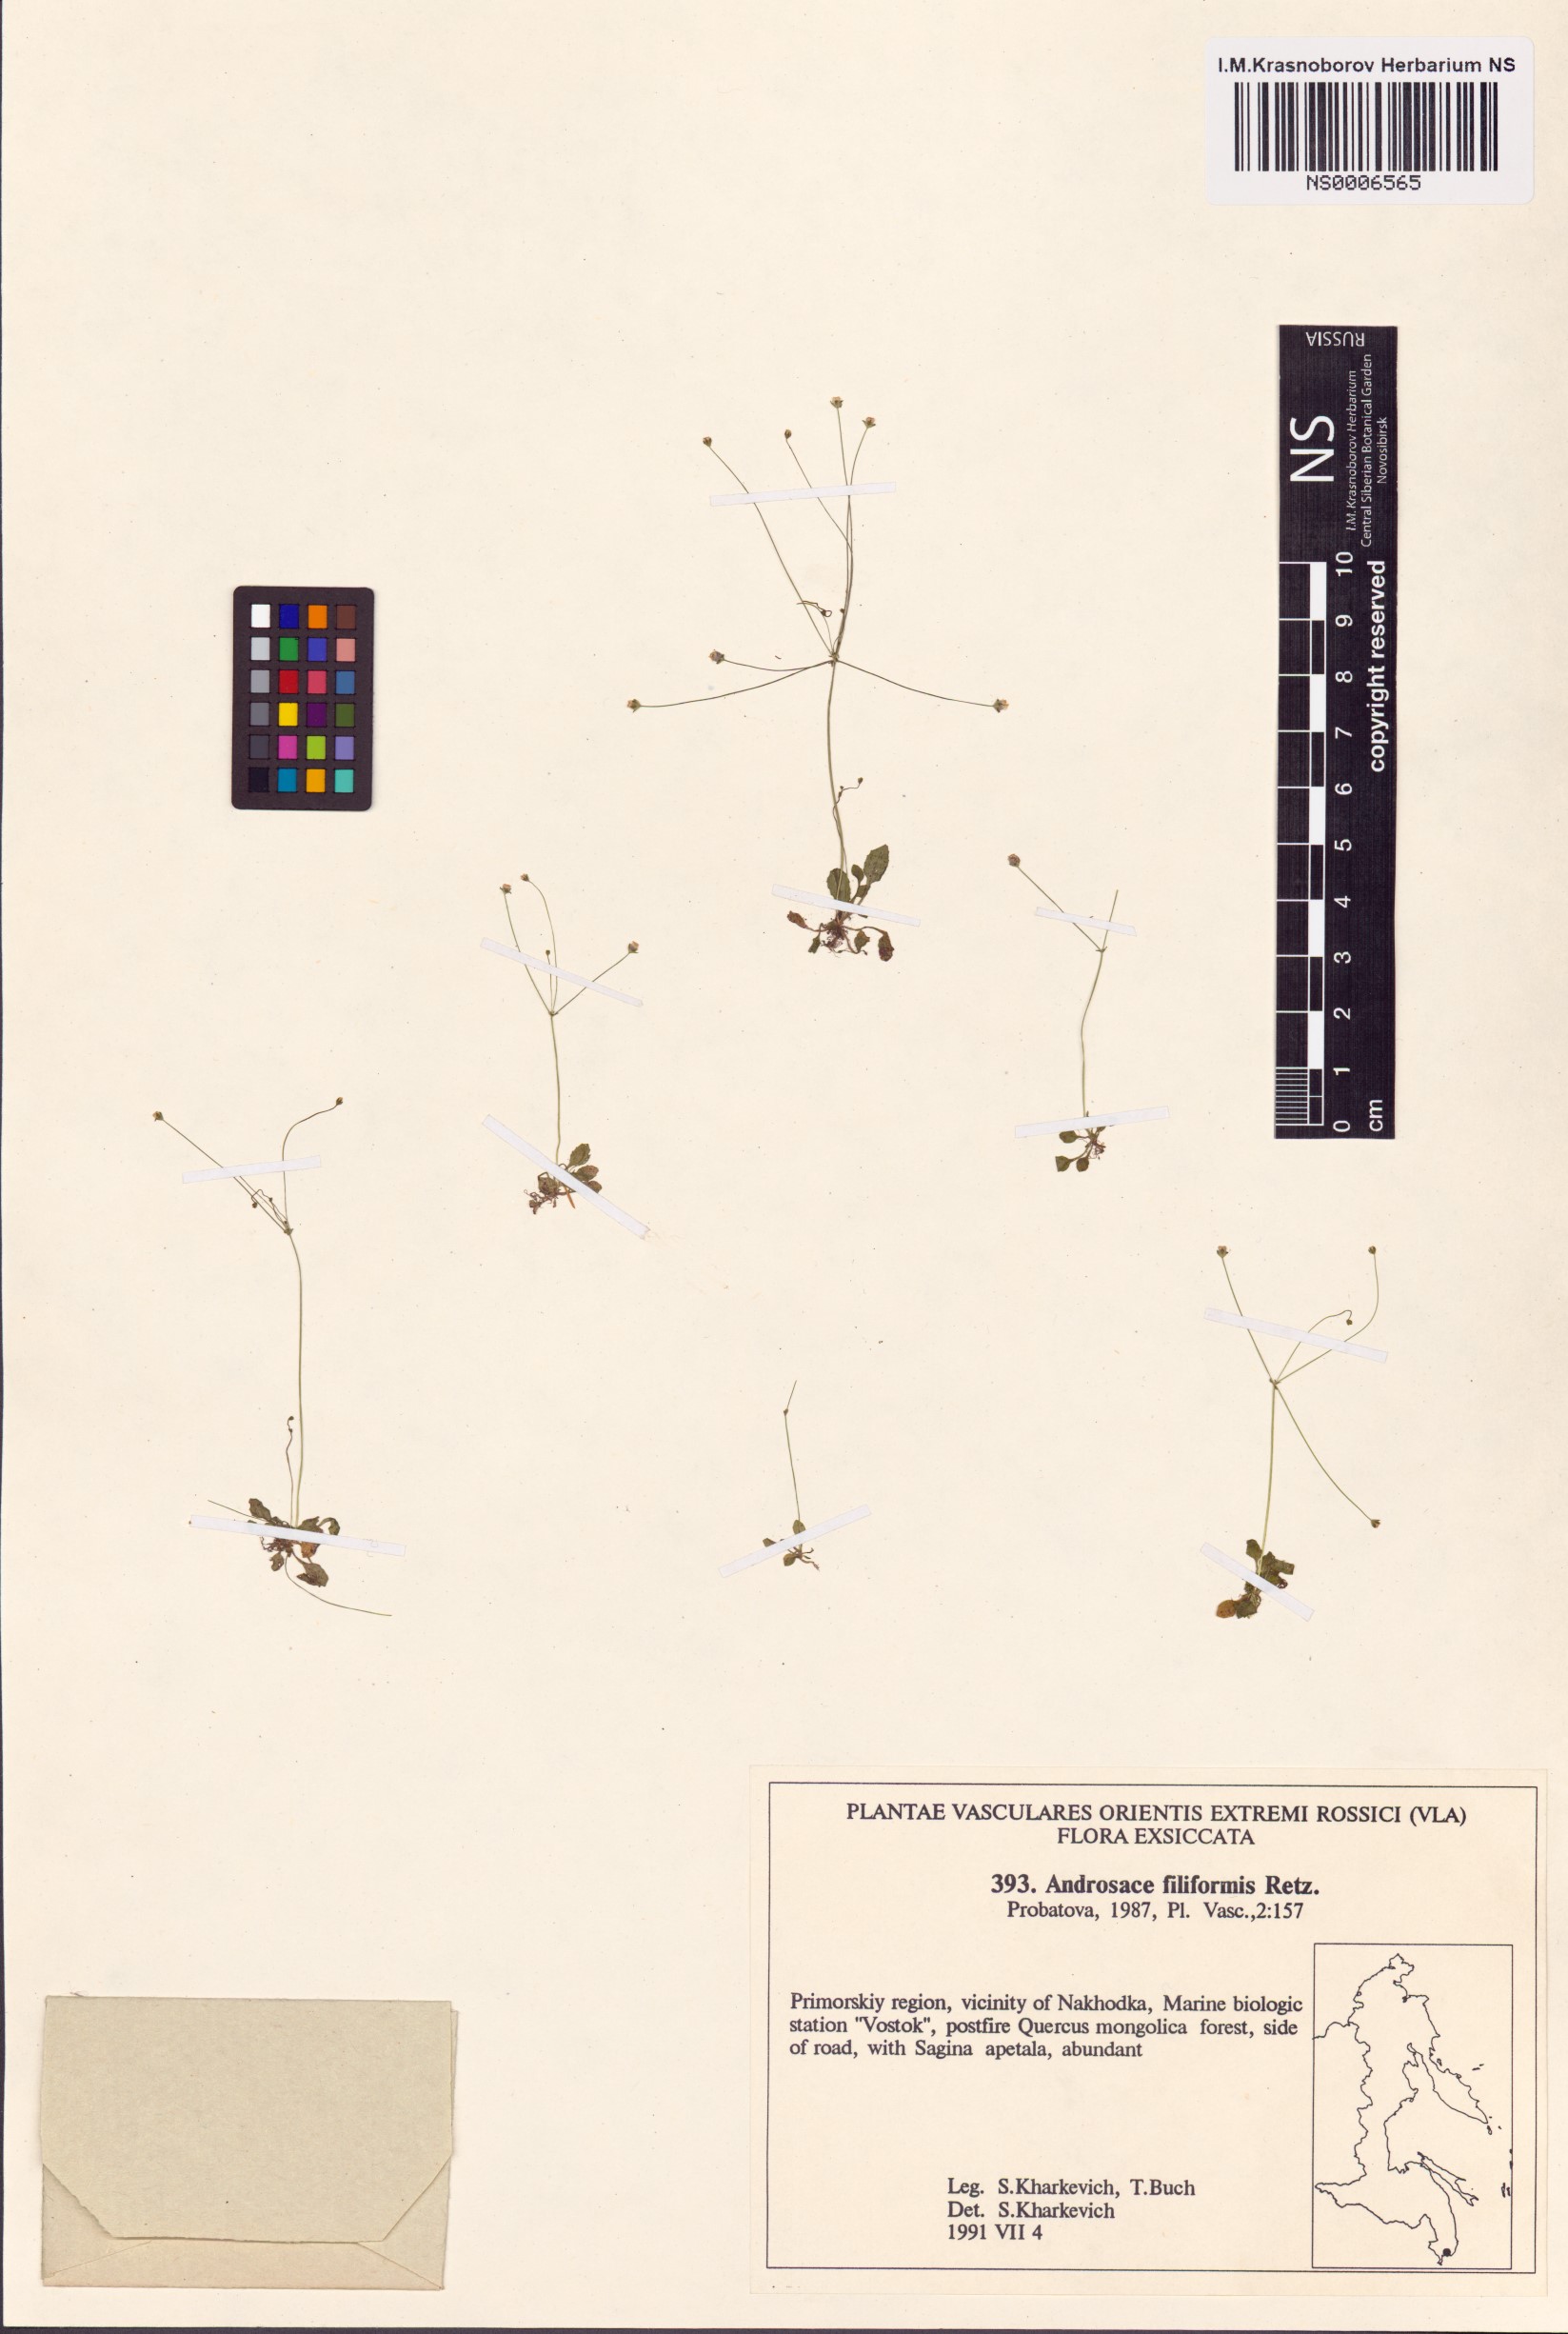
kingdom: Plantae
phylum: Tracheophyta
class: Magnoliopsida
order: Ericales
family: Primulaceae
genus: Androsace
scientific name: Androsace filiformis
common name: Filiform rock jasmine
